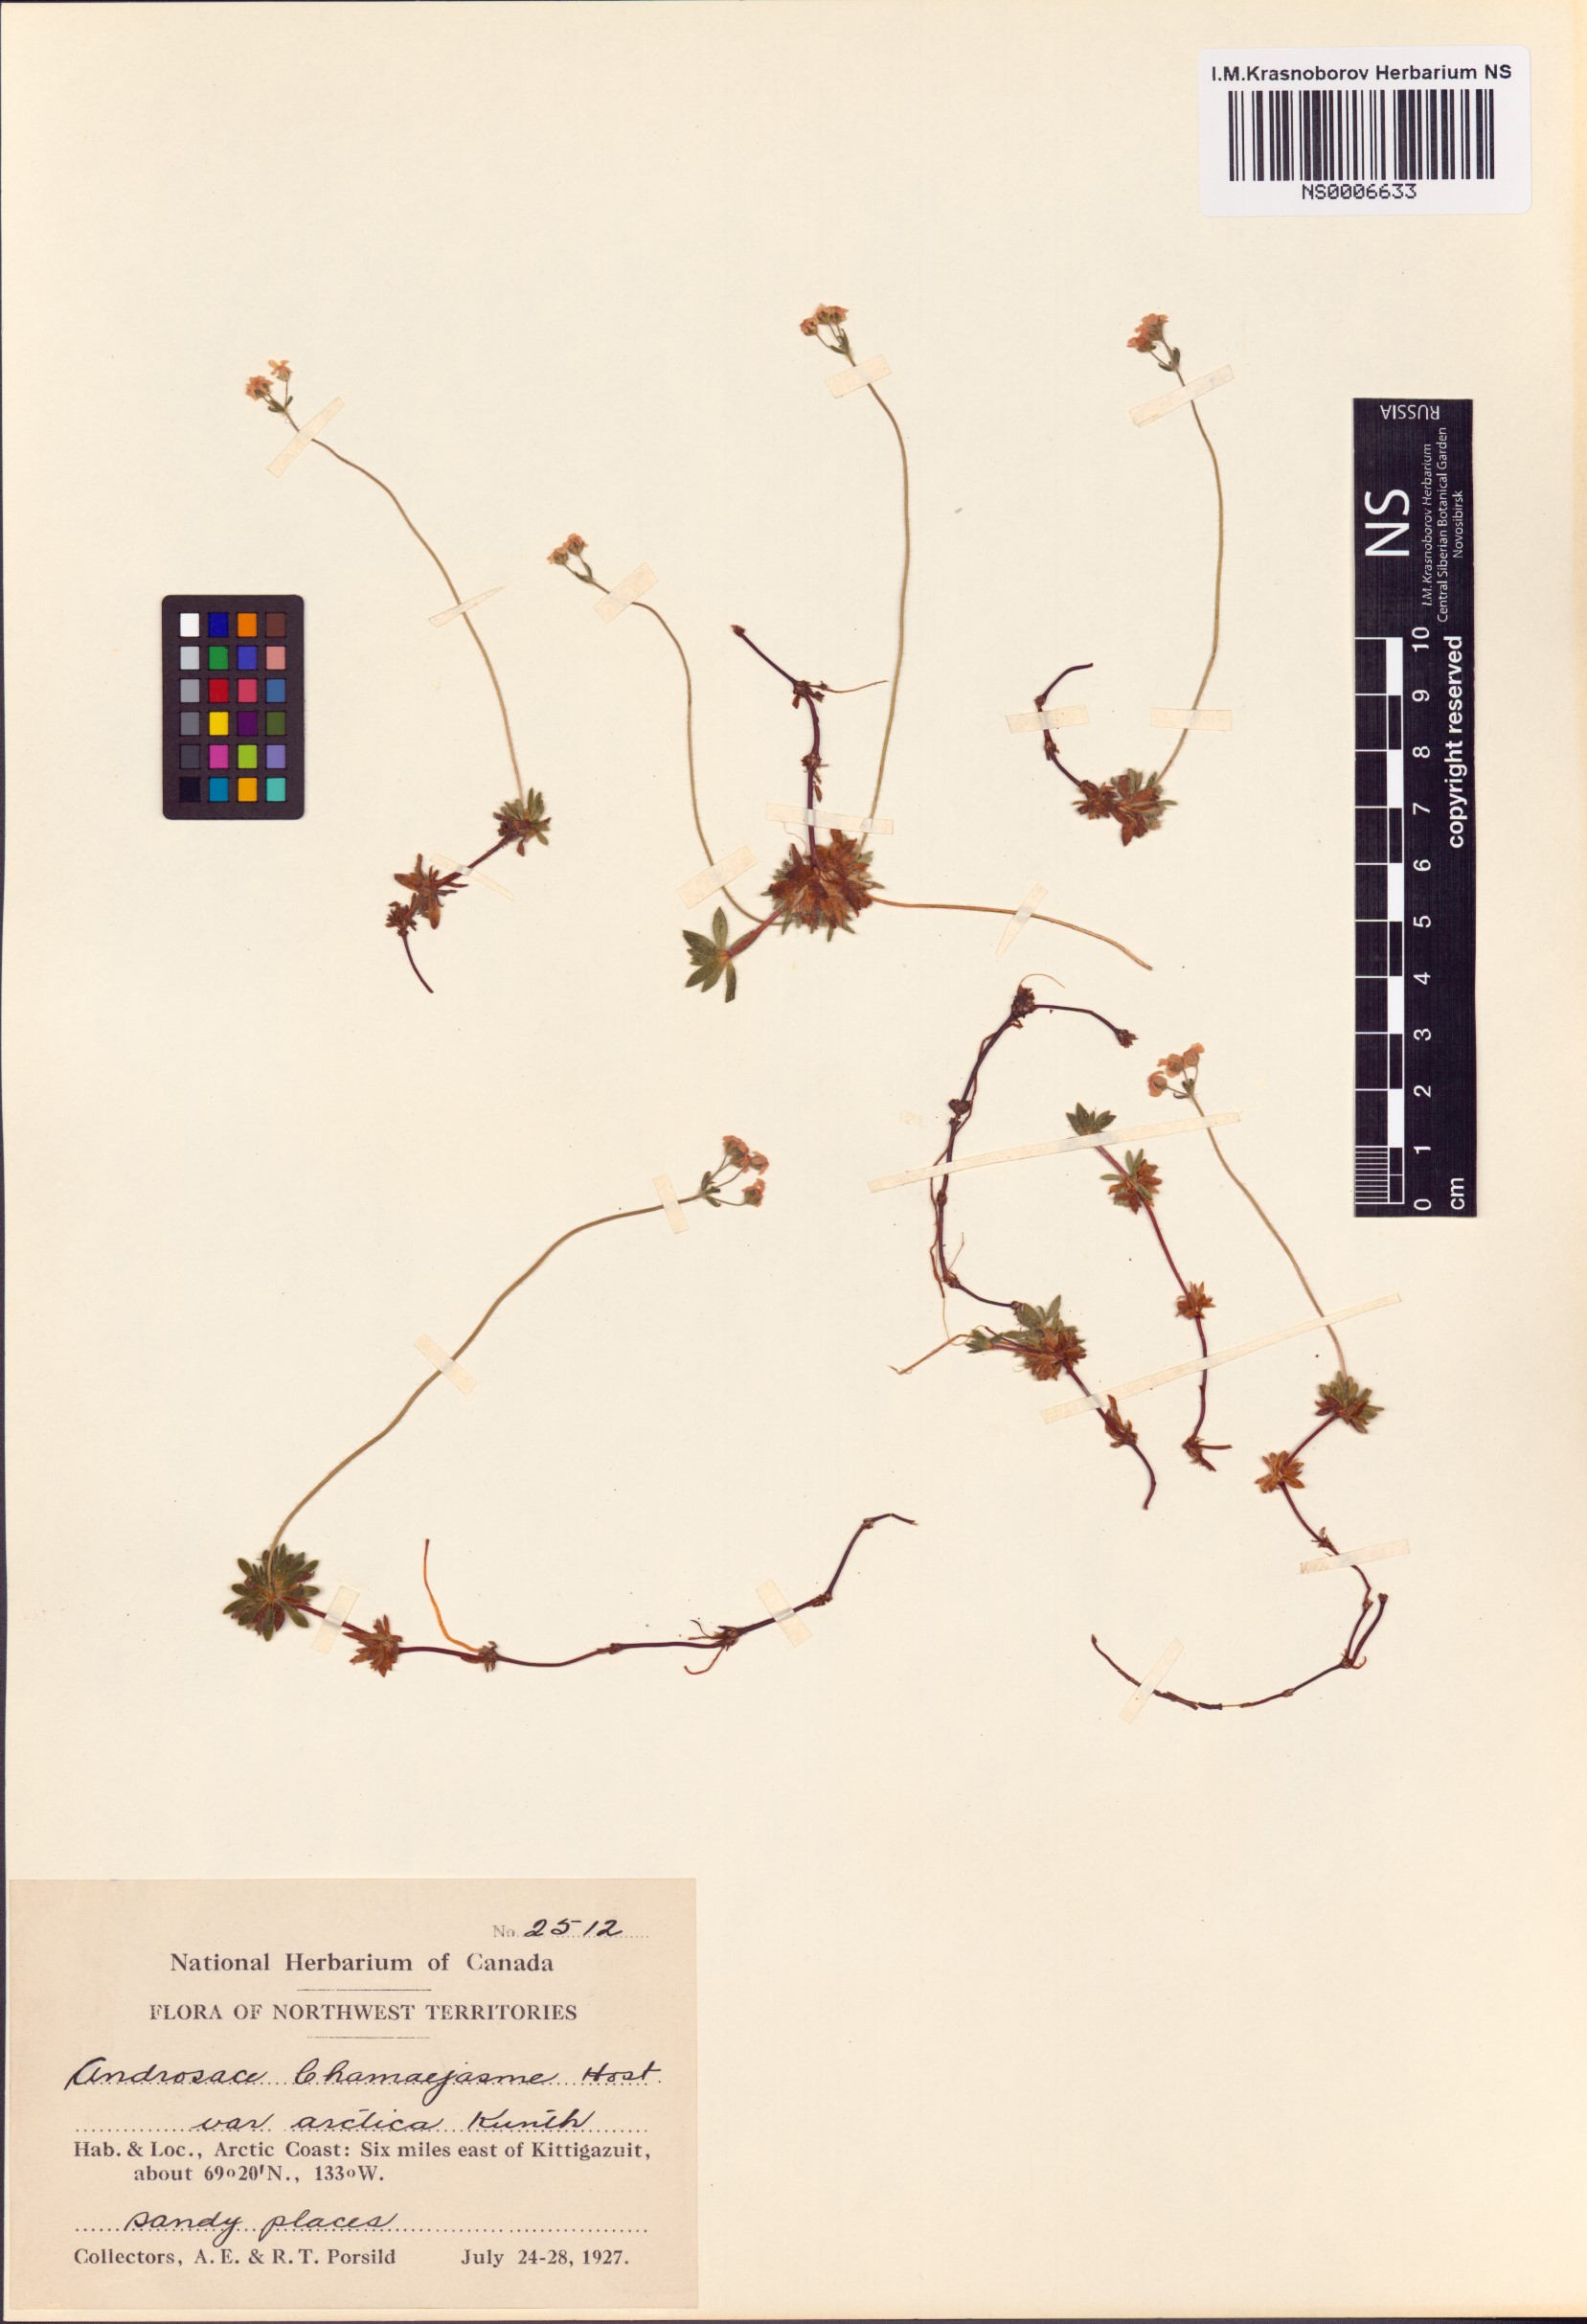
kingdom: Plantae
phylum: Tracheophyta
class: Magnoliopsida
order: Ericales
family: Primulaceae
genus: Androsace
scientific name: Androsace chamaejasme
